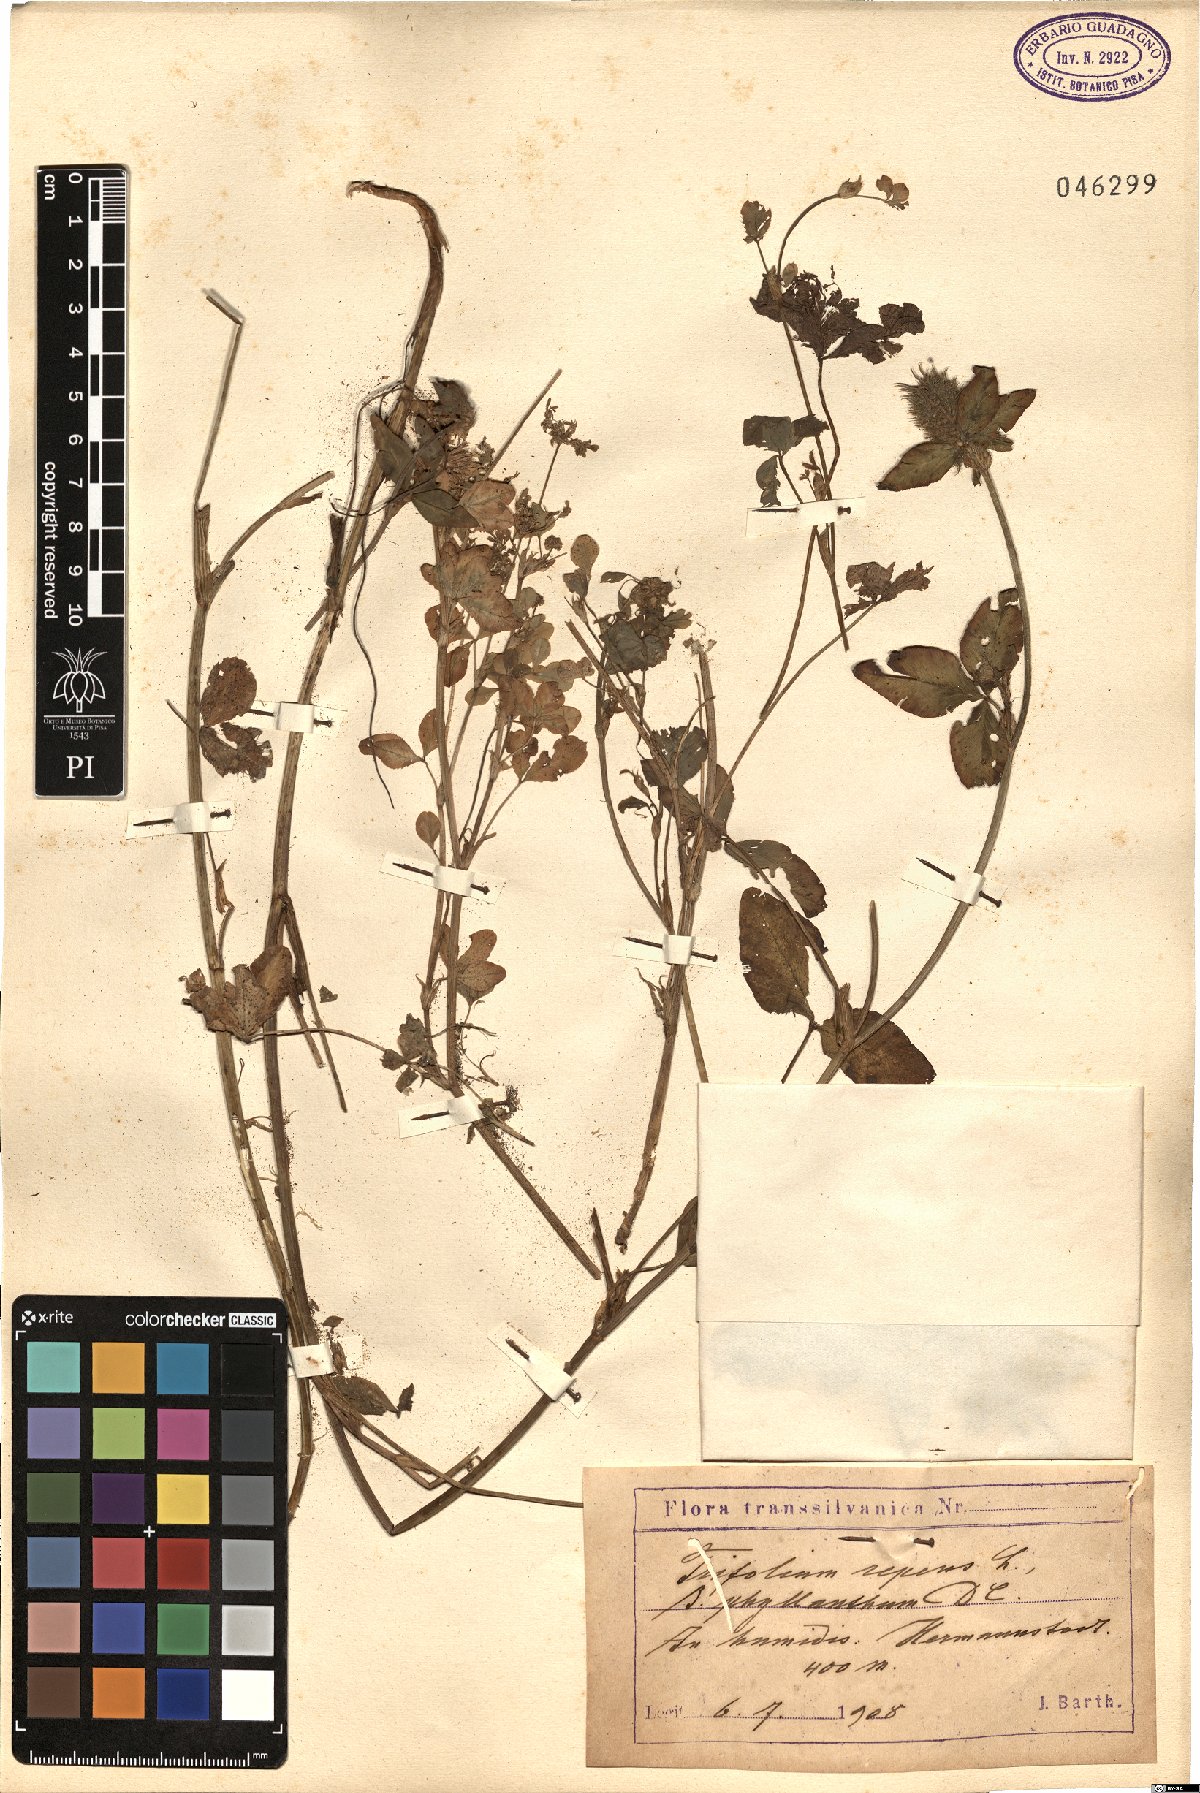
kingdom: Plantae
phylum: Tracheophyta
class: Magnoliopsida
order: Fabales
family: Fabaceae
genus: Trifolium
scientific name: Trifolium repens
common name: White clover
